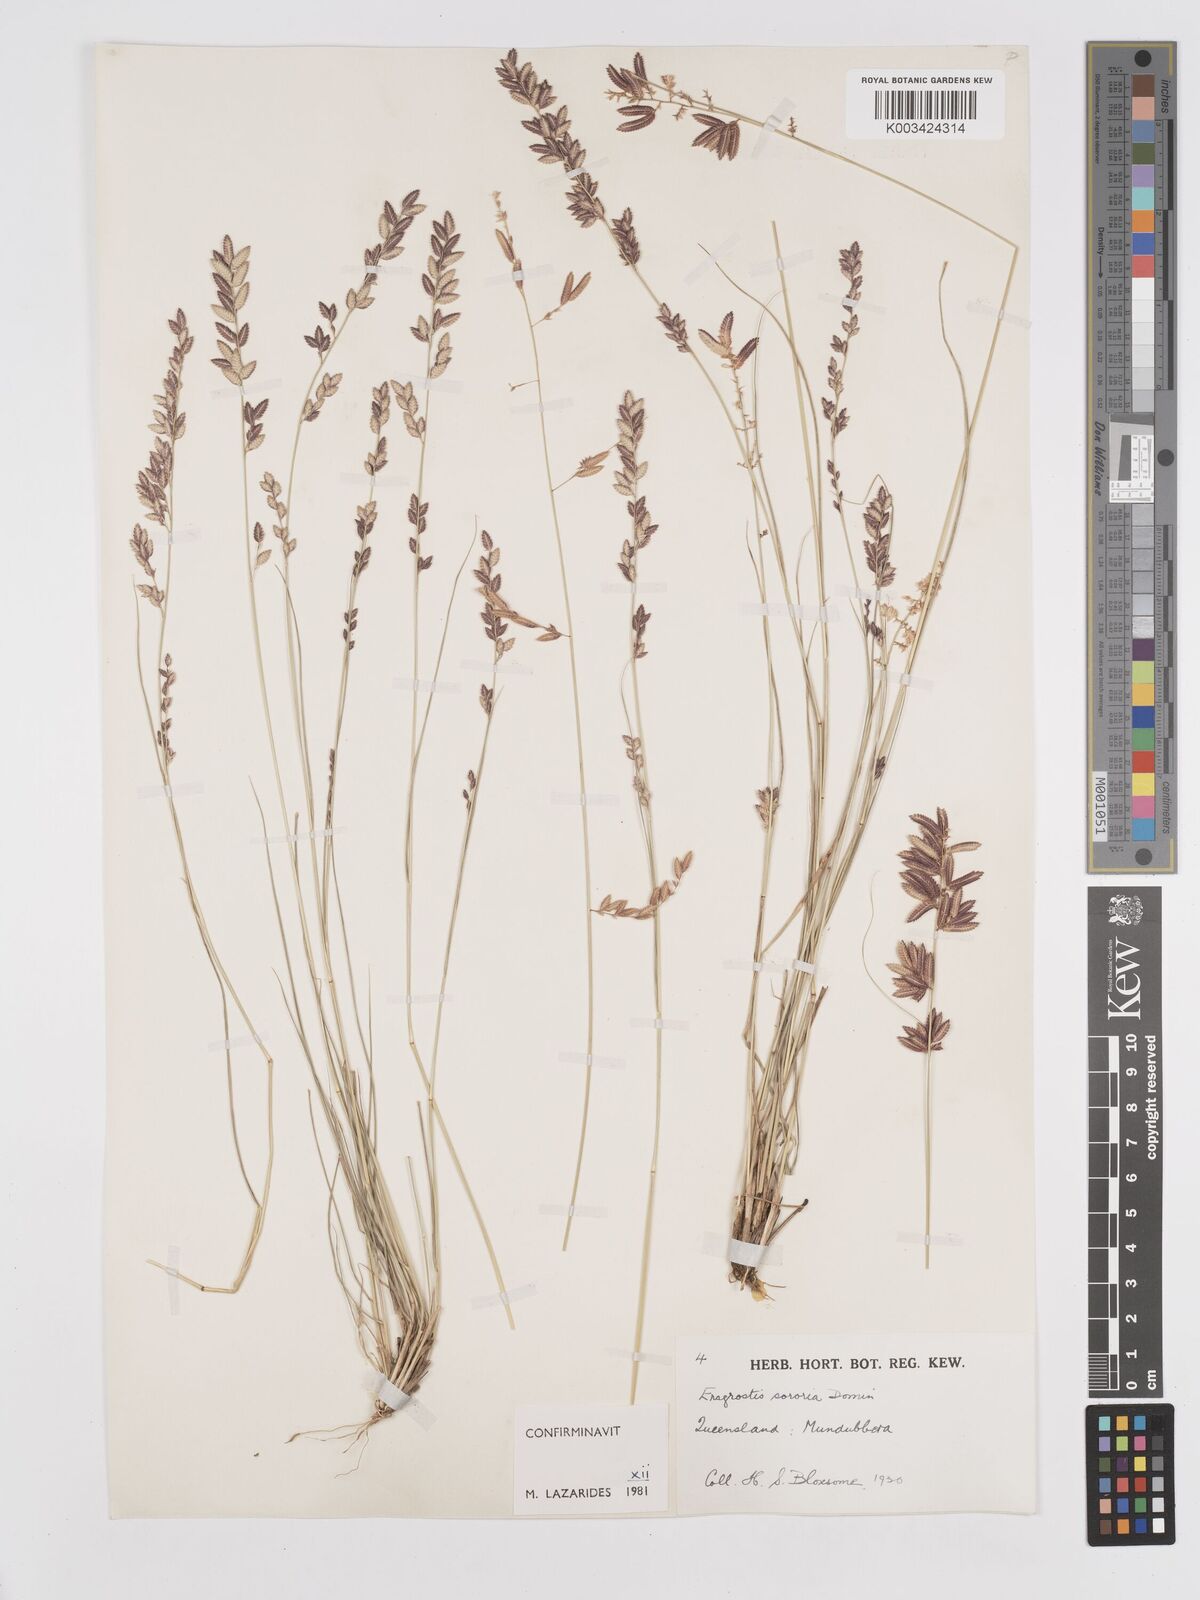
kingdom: Plantae
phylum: Tracheophyta
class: Liliopsida
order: Poales
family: Poaceae
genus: Eragrostis
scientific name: Eragrostis sororia
